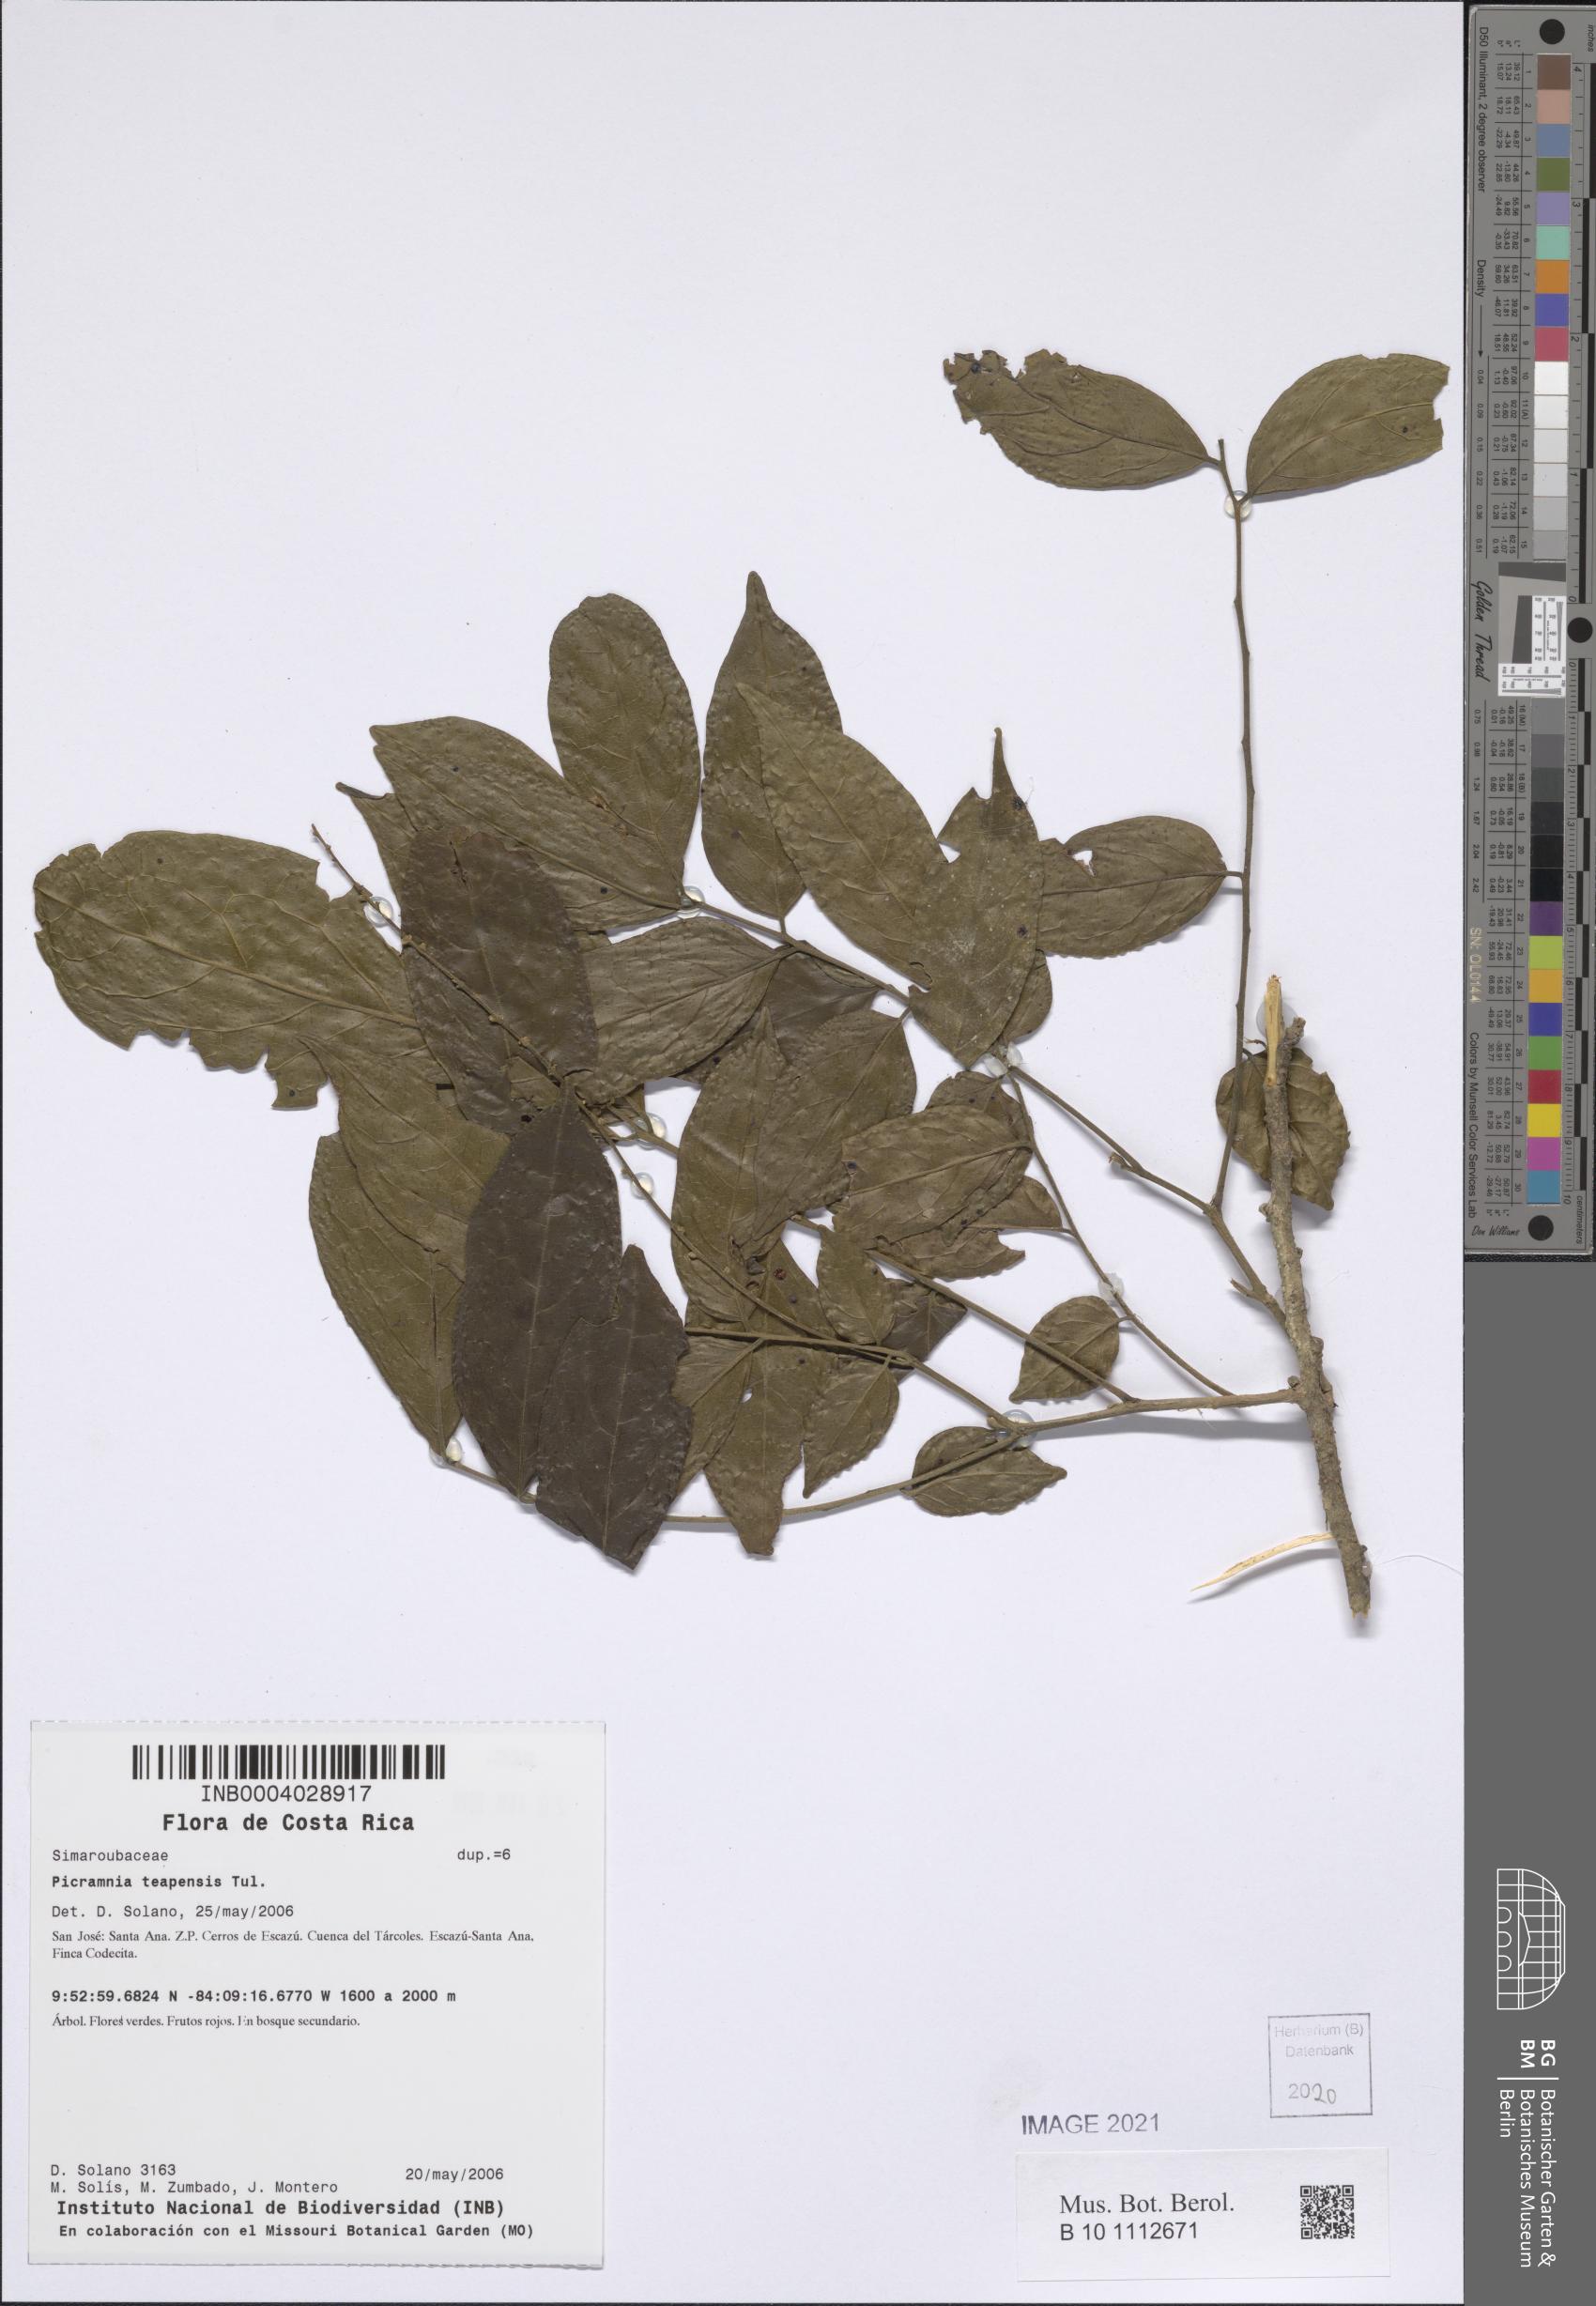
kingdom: Plantae
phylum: Tracheophyta
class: Magnoliopsida
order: Picramniales
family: Picramniaceae
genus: Picramnia
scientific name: Picramnia teapensis
